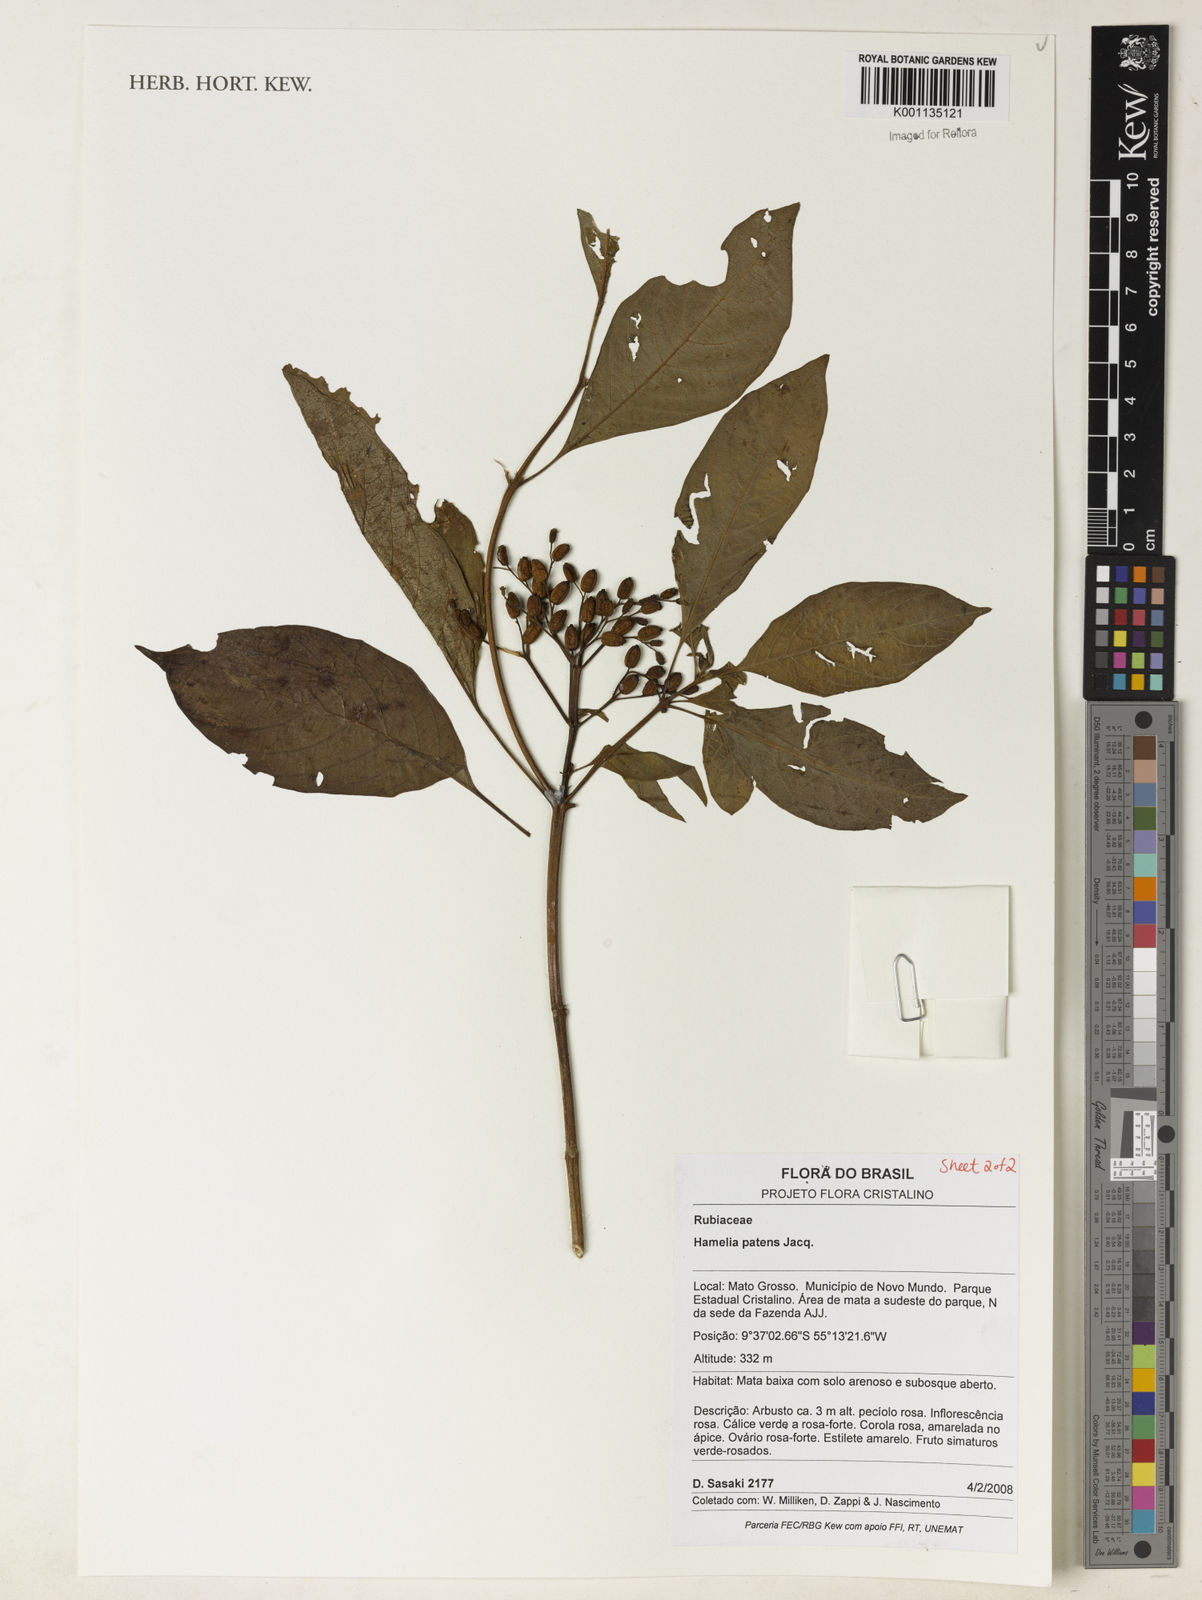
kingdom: Plantae
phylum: Tracheophyta
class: Magnoliopsida
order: Gentianales
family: Rubiaceae
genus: Hamelia
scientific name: Hamelia patens
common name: Redhead
